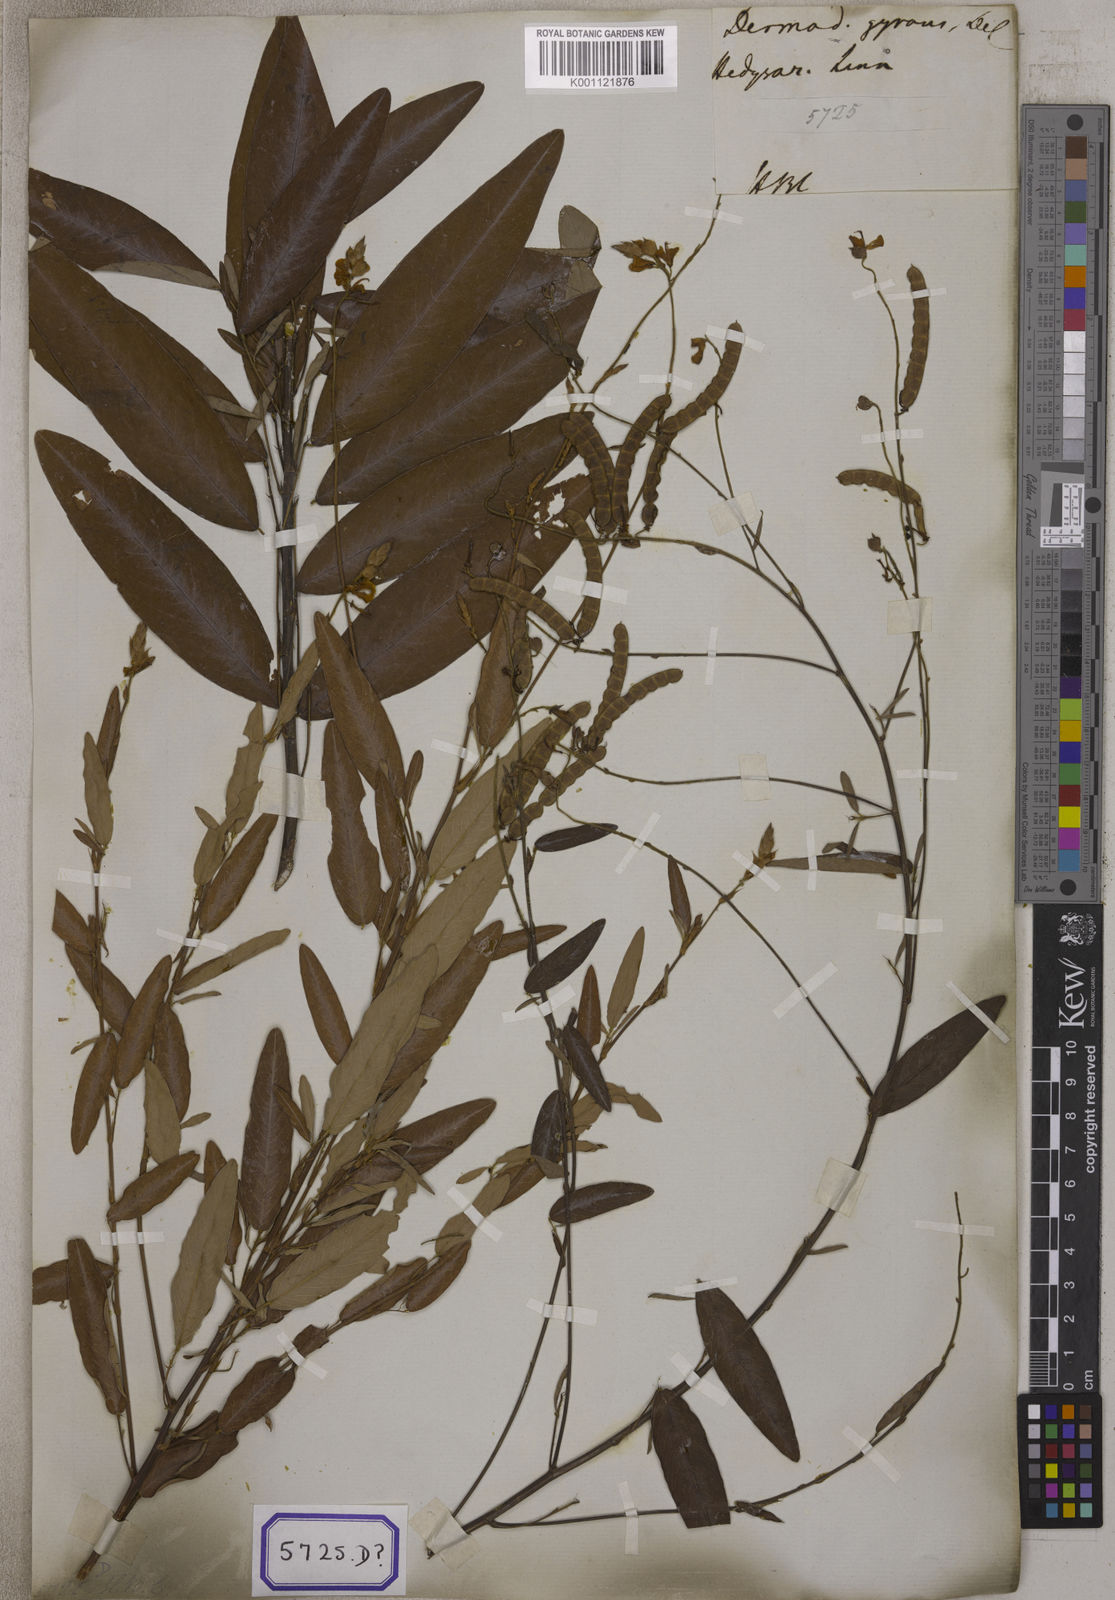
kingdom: Plantae
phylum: Tracheophyta
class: Magnoliopsida
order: Fabales
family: Fabaceae
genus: Codariocalyx
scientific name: Codariocalyx motorius
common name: Telegraph-plant
